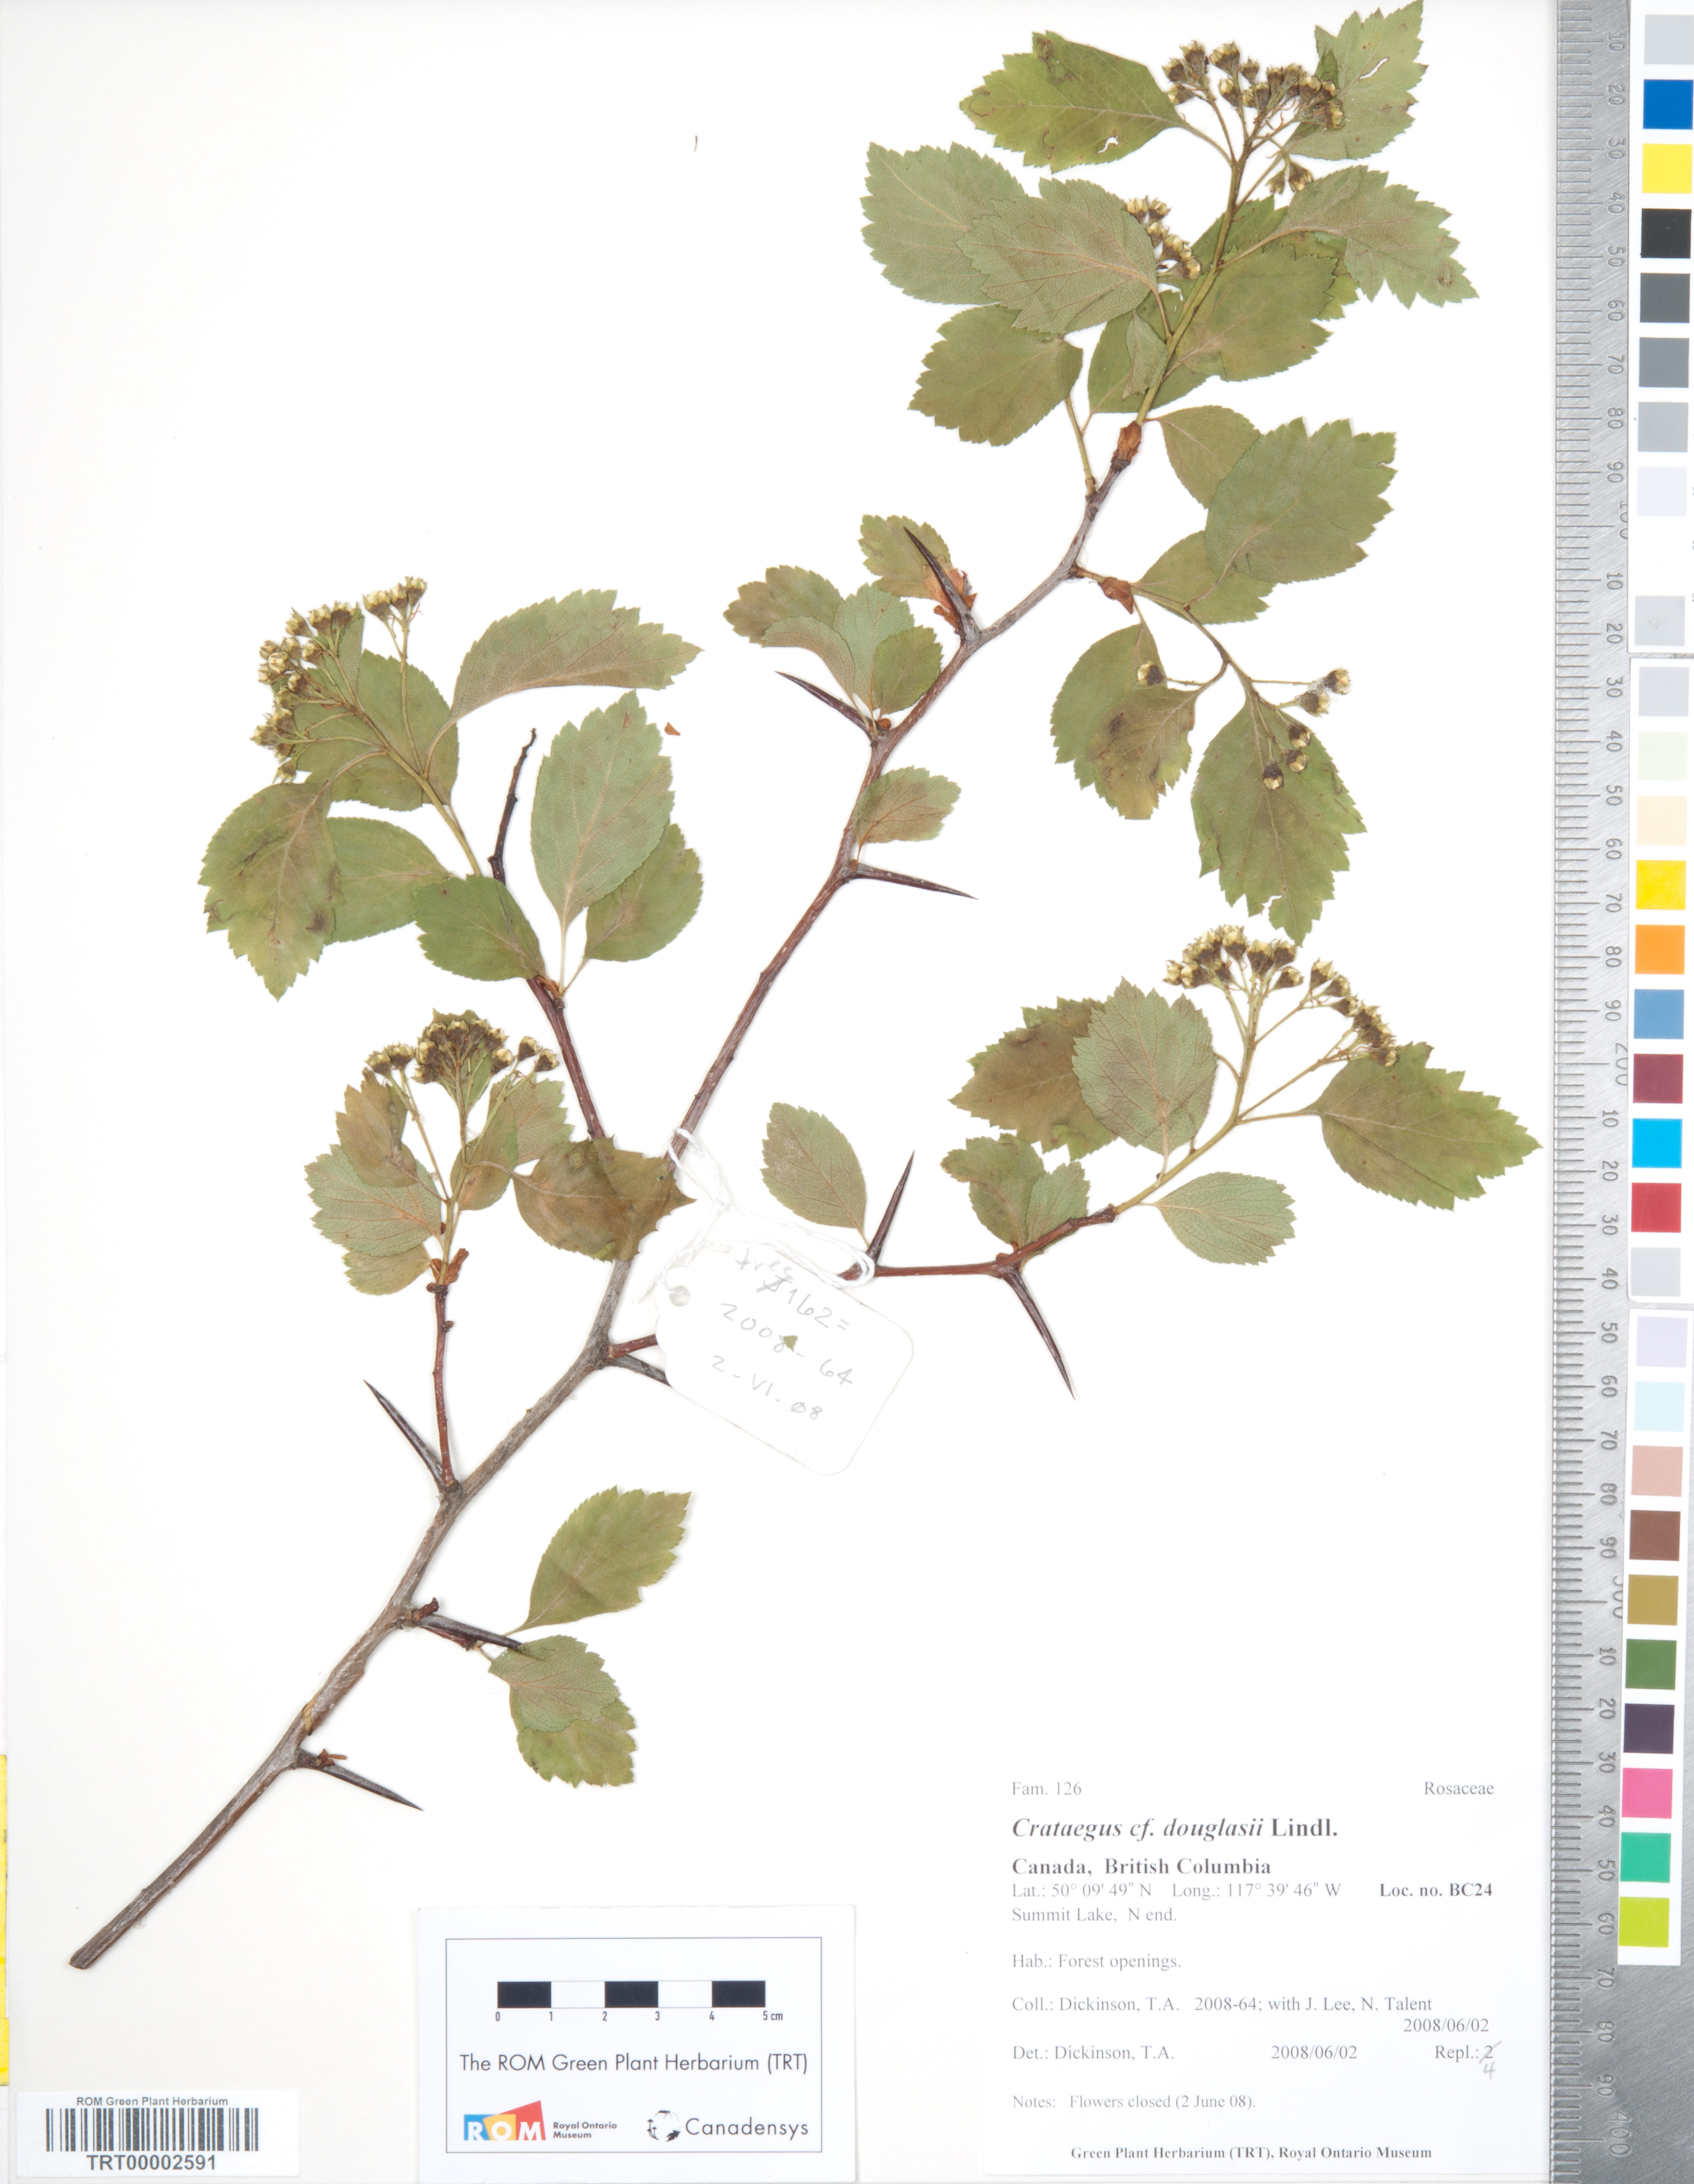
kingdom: Plantae
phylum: Tracheophyta
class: Magnoliopsida
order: Rosales
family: Rosaceae
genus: Crataegus
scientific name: Crataegus atrovirens
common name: Dark green hawthorn
